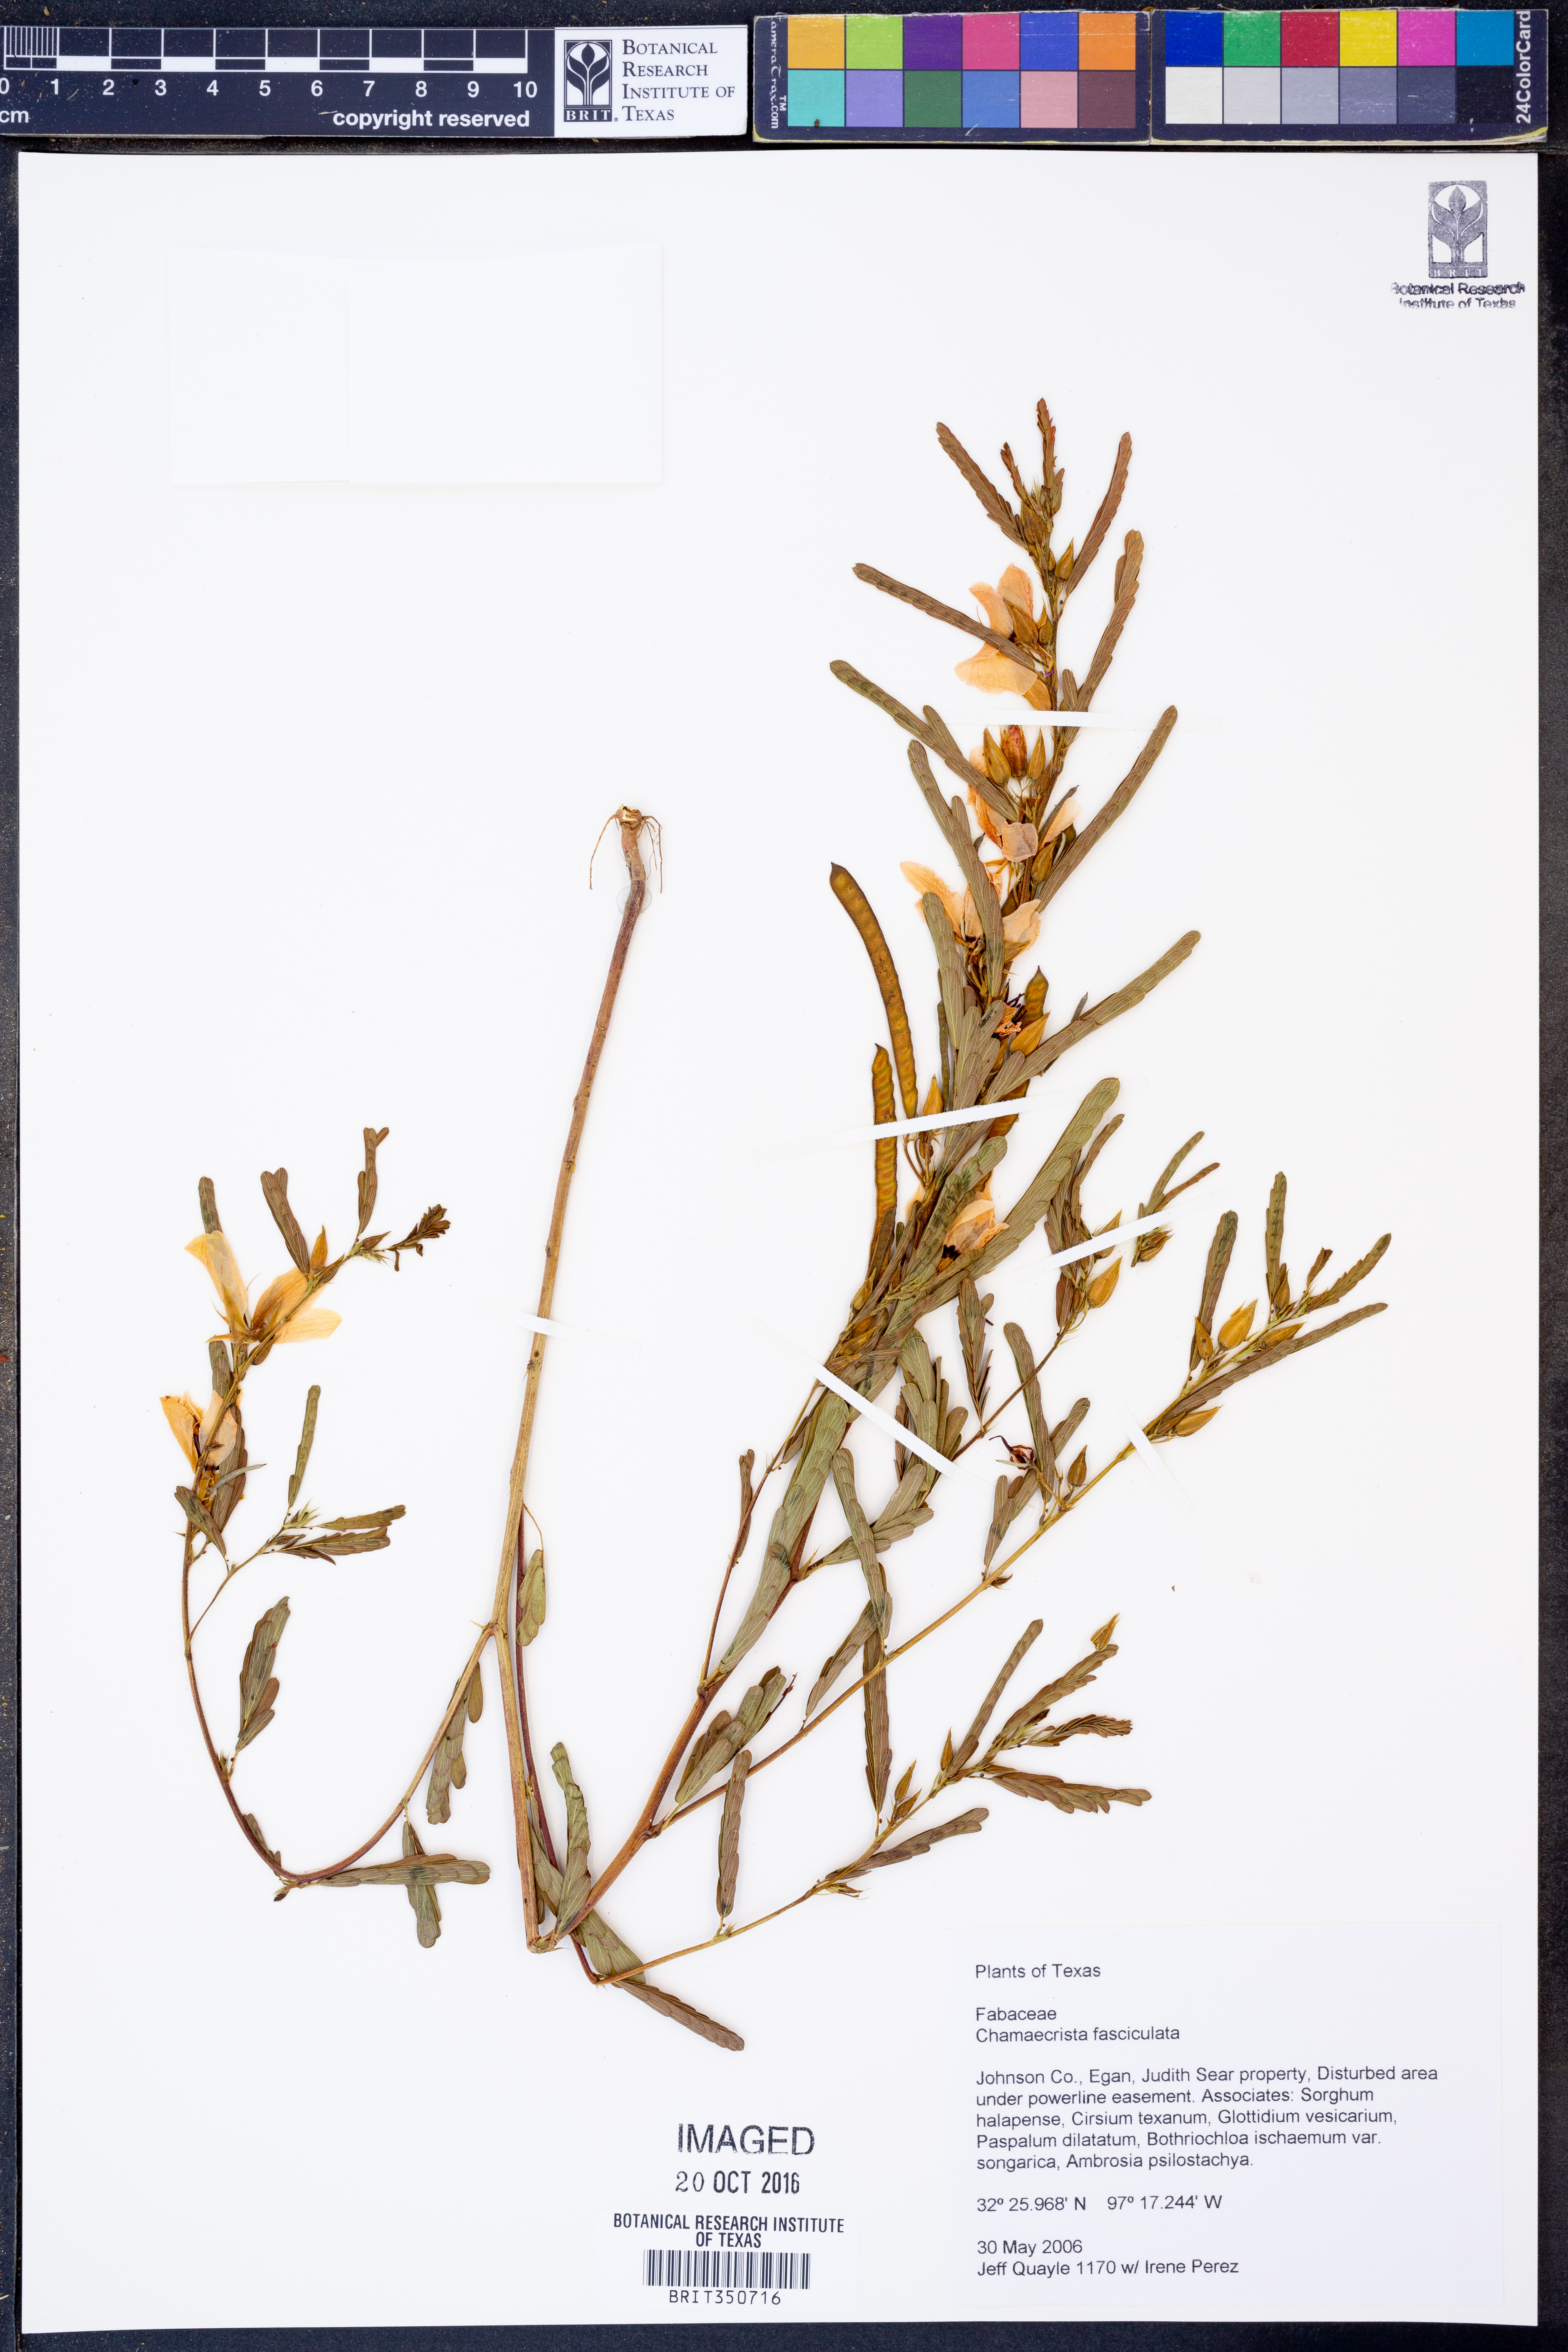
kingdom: Plantae
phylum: Tracheophyta
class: Magnoliopsida
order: Fabales
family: Fabaceae
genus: Chamaecrista
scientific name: Chamaecrista fasciculata
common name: Golden cassia
